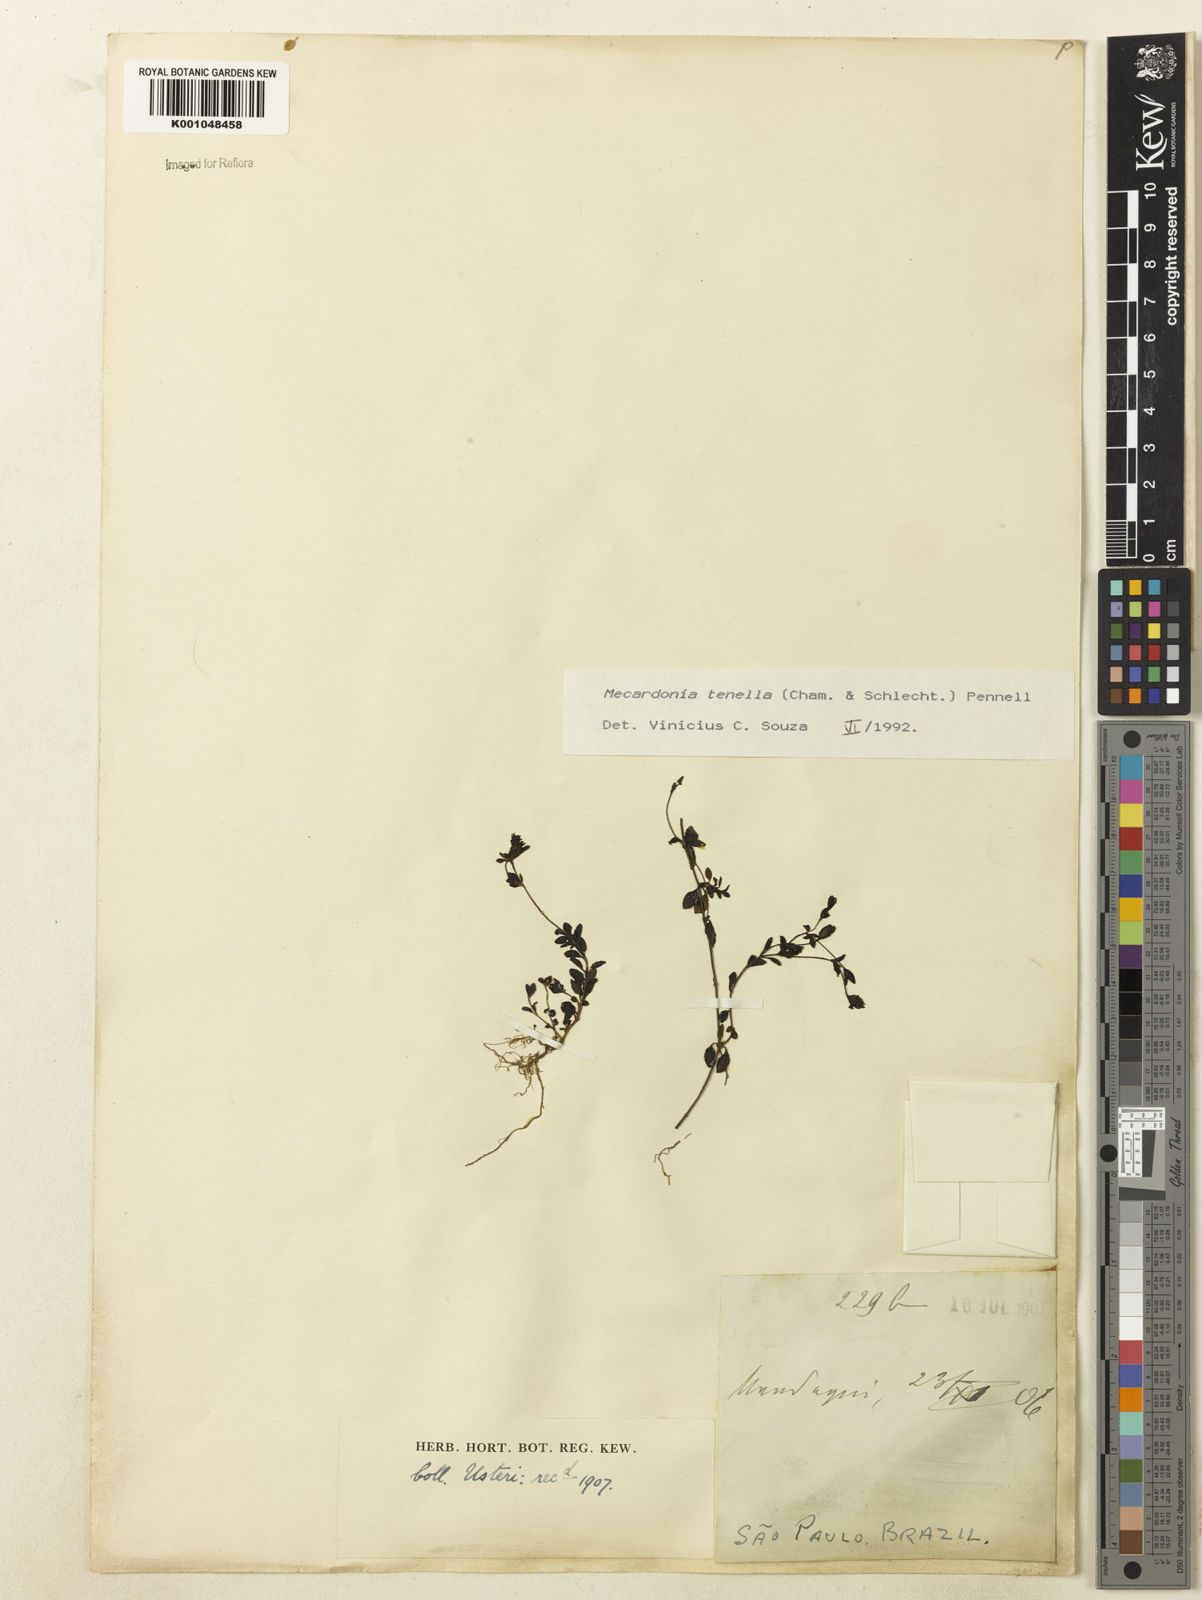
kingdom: Plantae
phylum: Tracheophyta
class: Magnoliopsida
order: Lamiales
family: Plantaginaceae
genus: Mecardonia
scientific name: Mecardonia procumbens
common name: Baby jump-up
